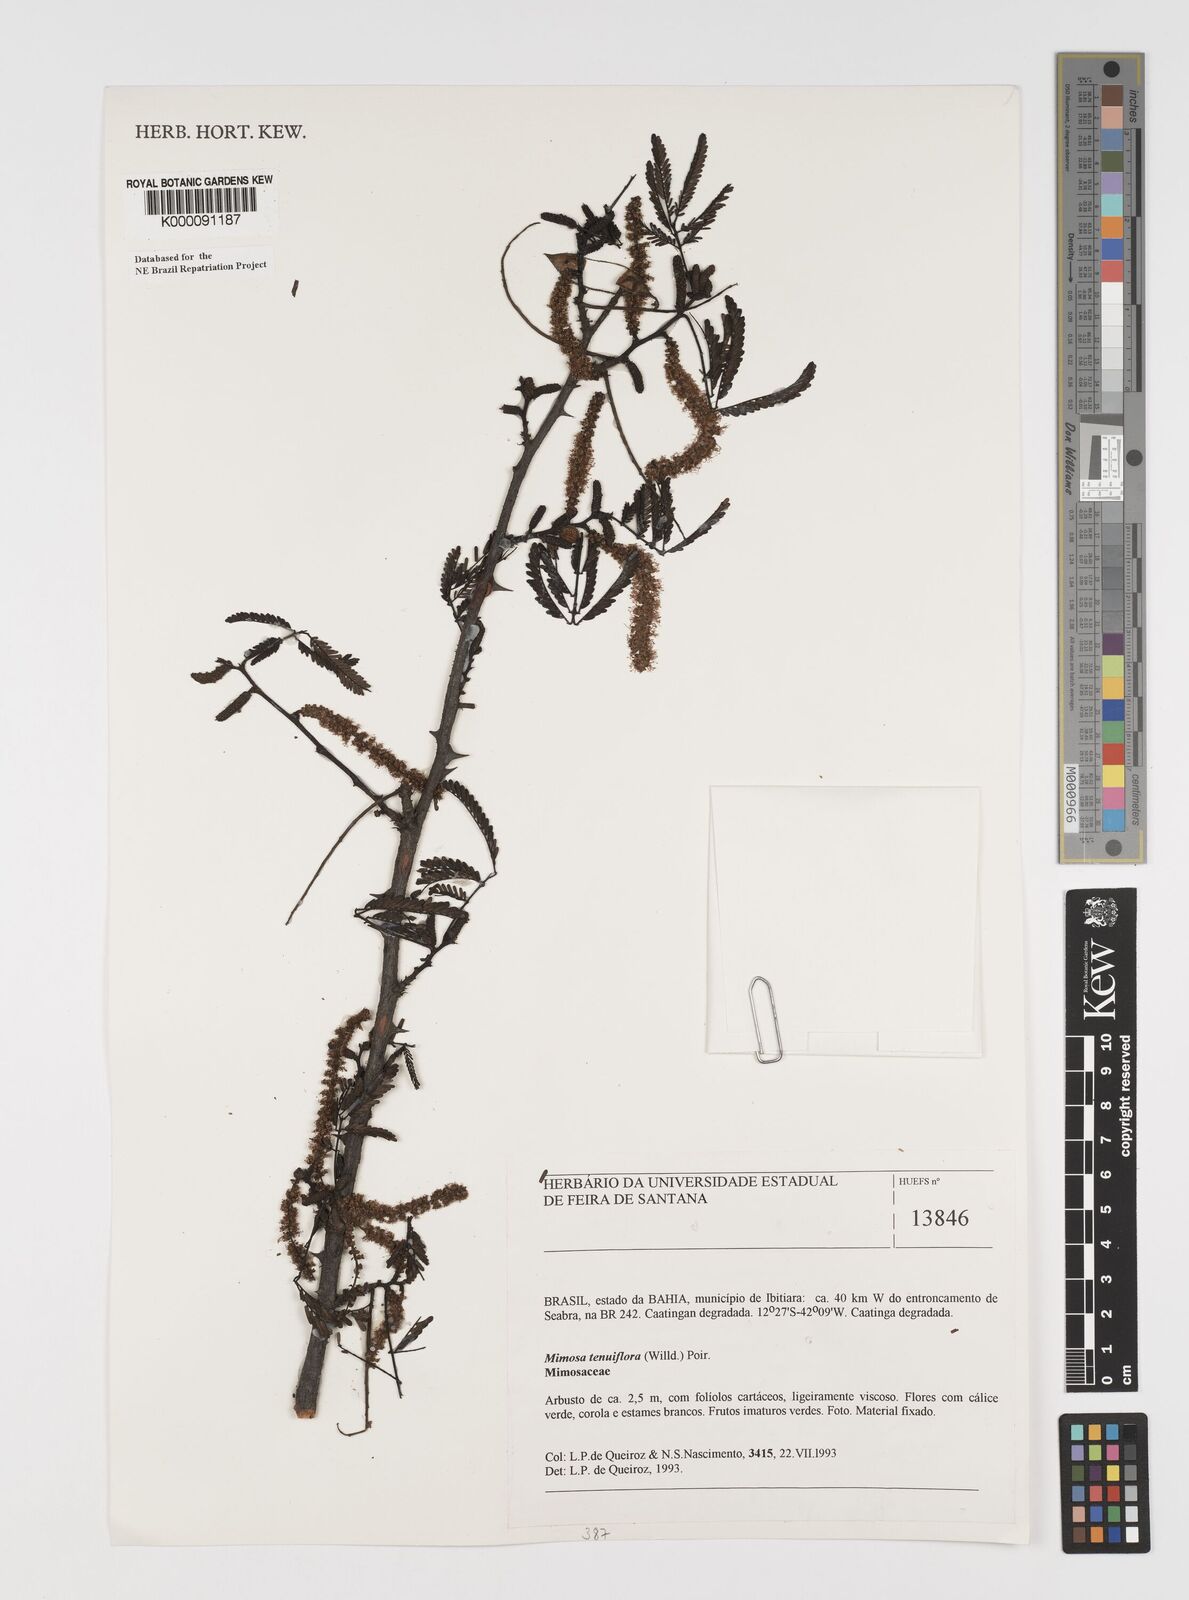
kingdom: Plantae
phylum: Tracheophyta
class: Magnoliopsida
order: Fabales
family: Fabaceae
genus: Mimosa
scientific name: Mimosa tenuiflora
